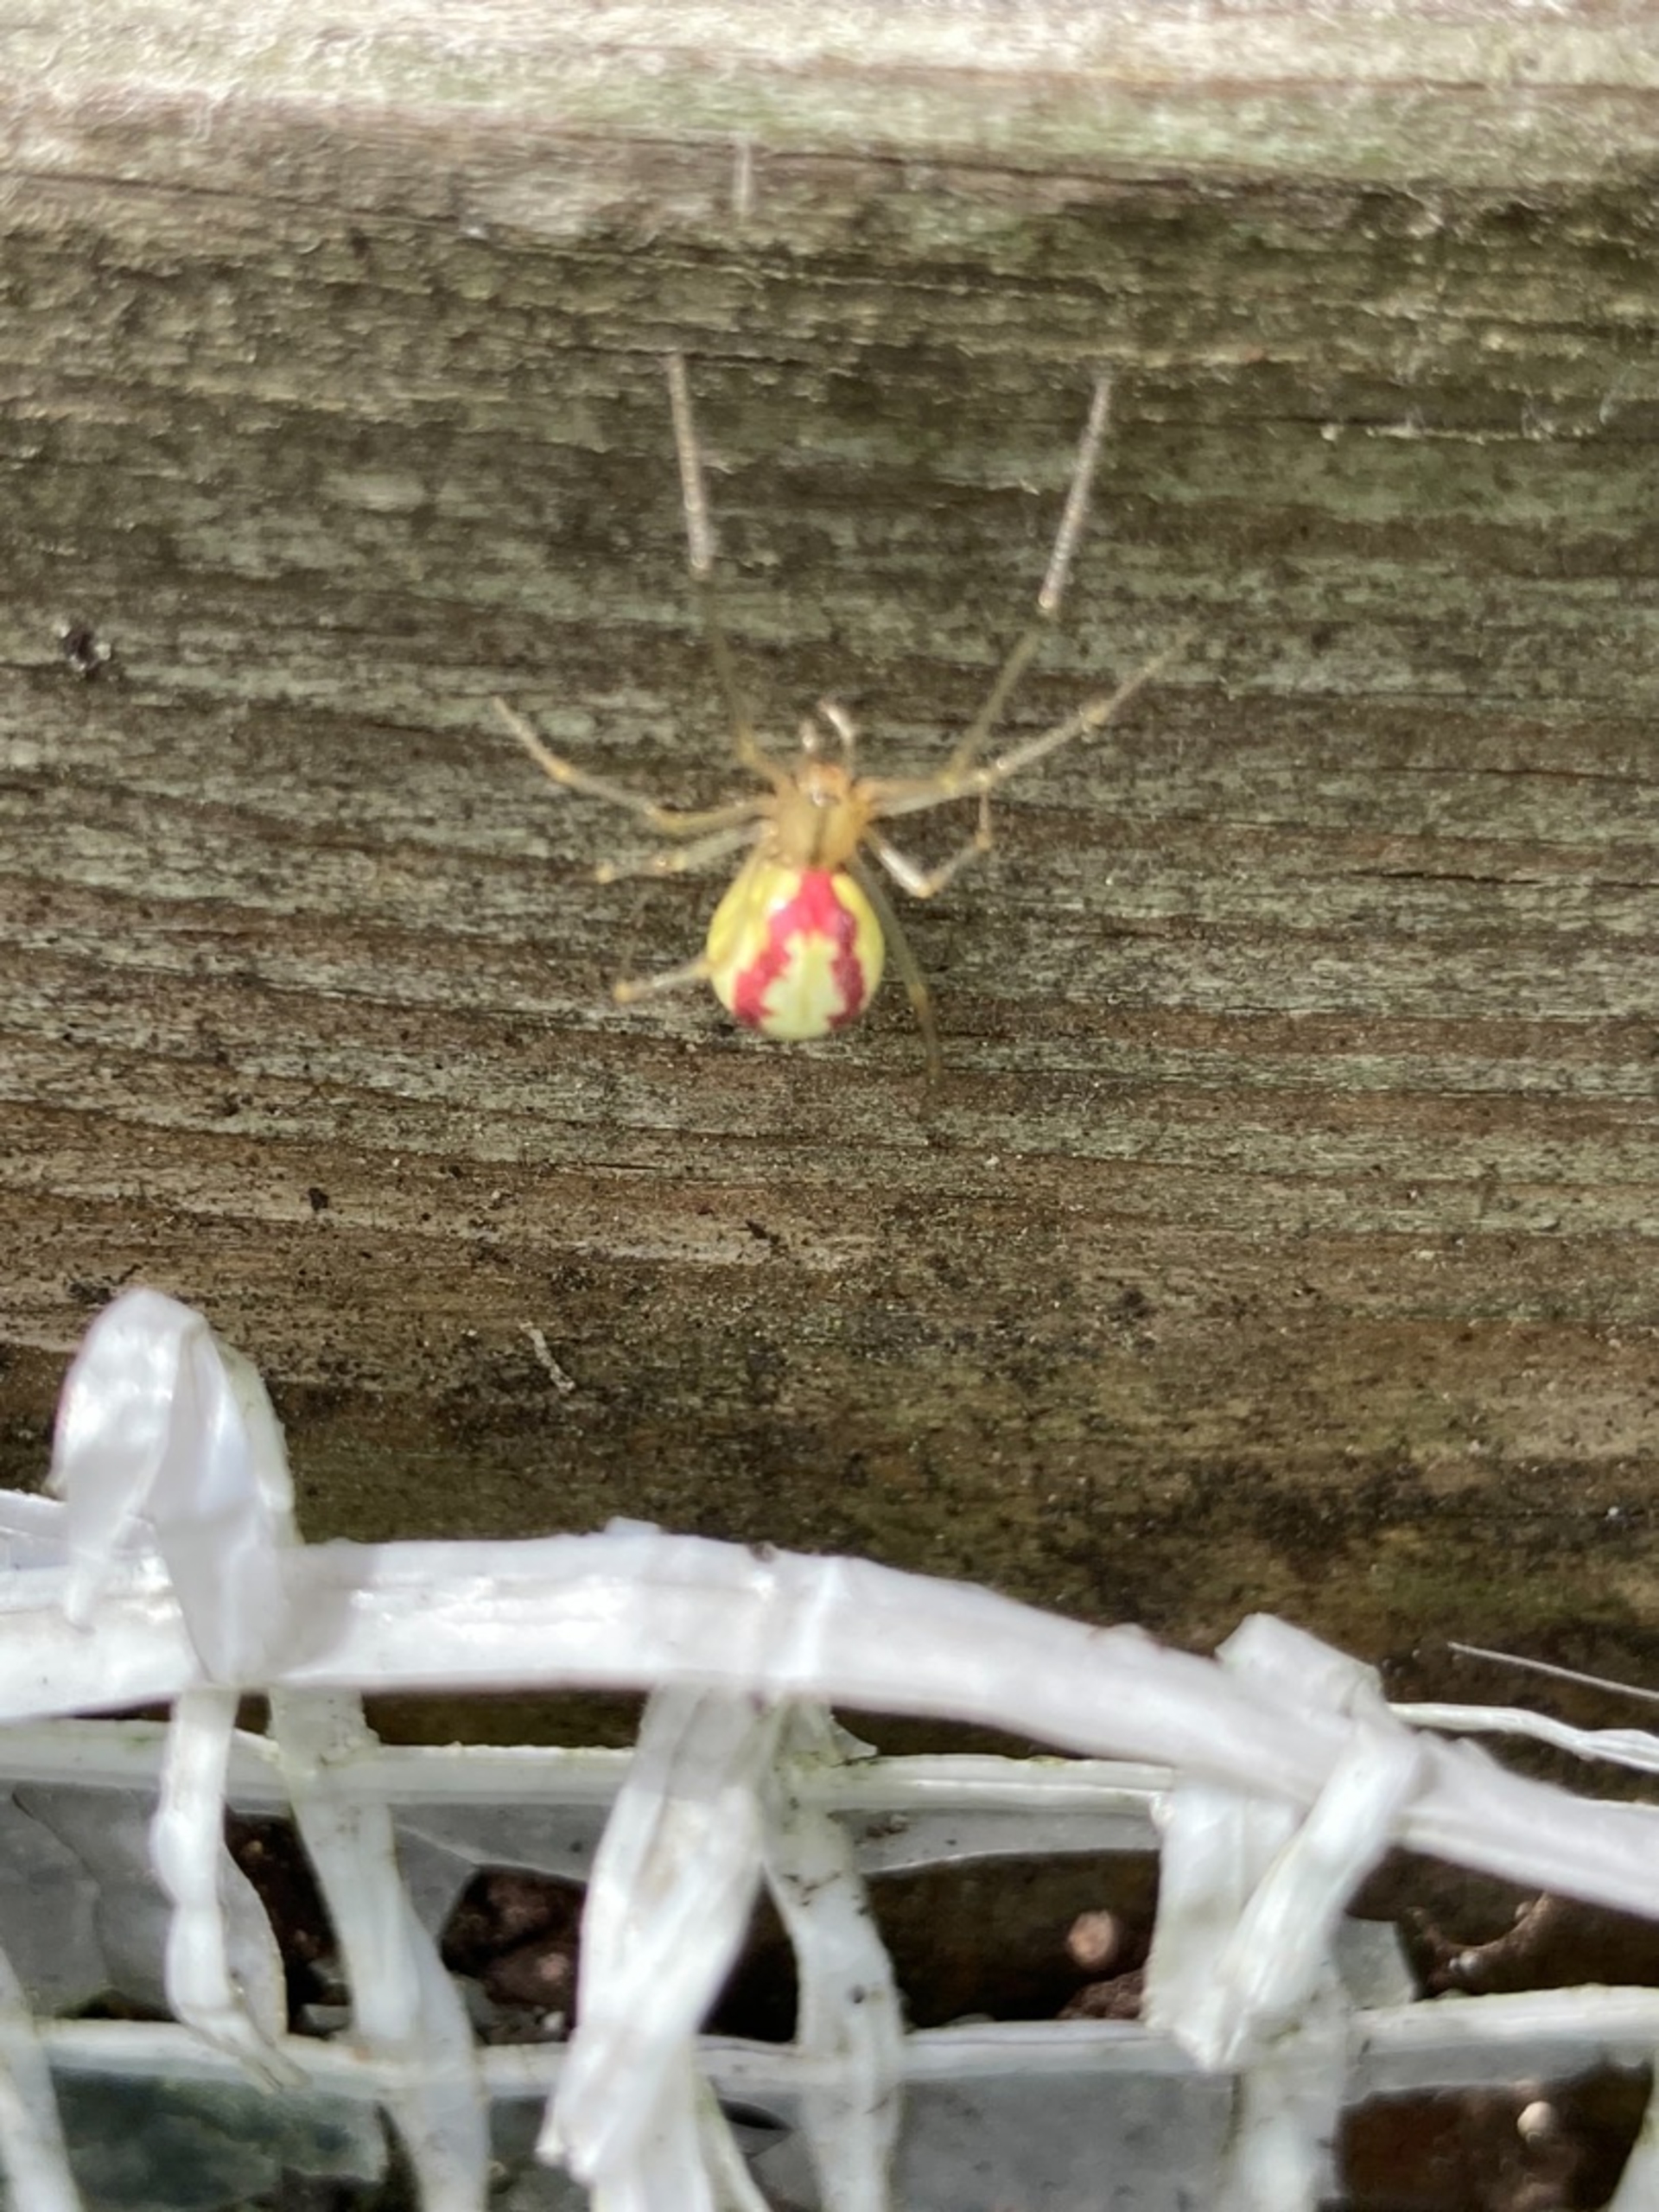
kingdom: Animalia
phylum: Arthropoda
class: Arachnida
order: Araneae
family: Theridiidae
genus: Enoplognatha
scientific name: Enoplognatha
